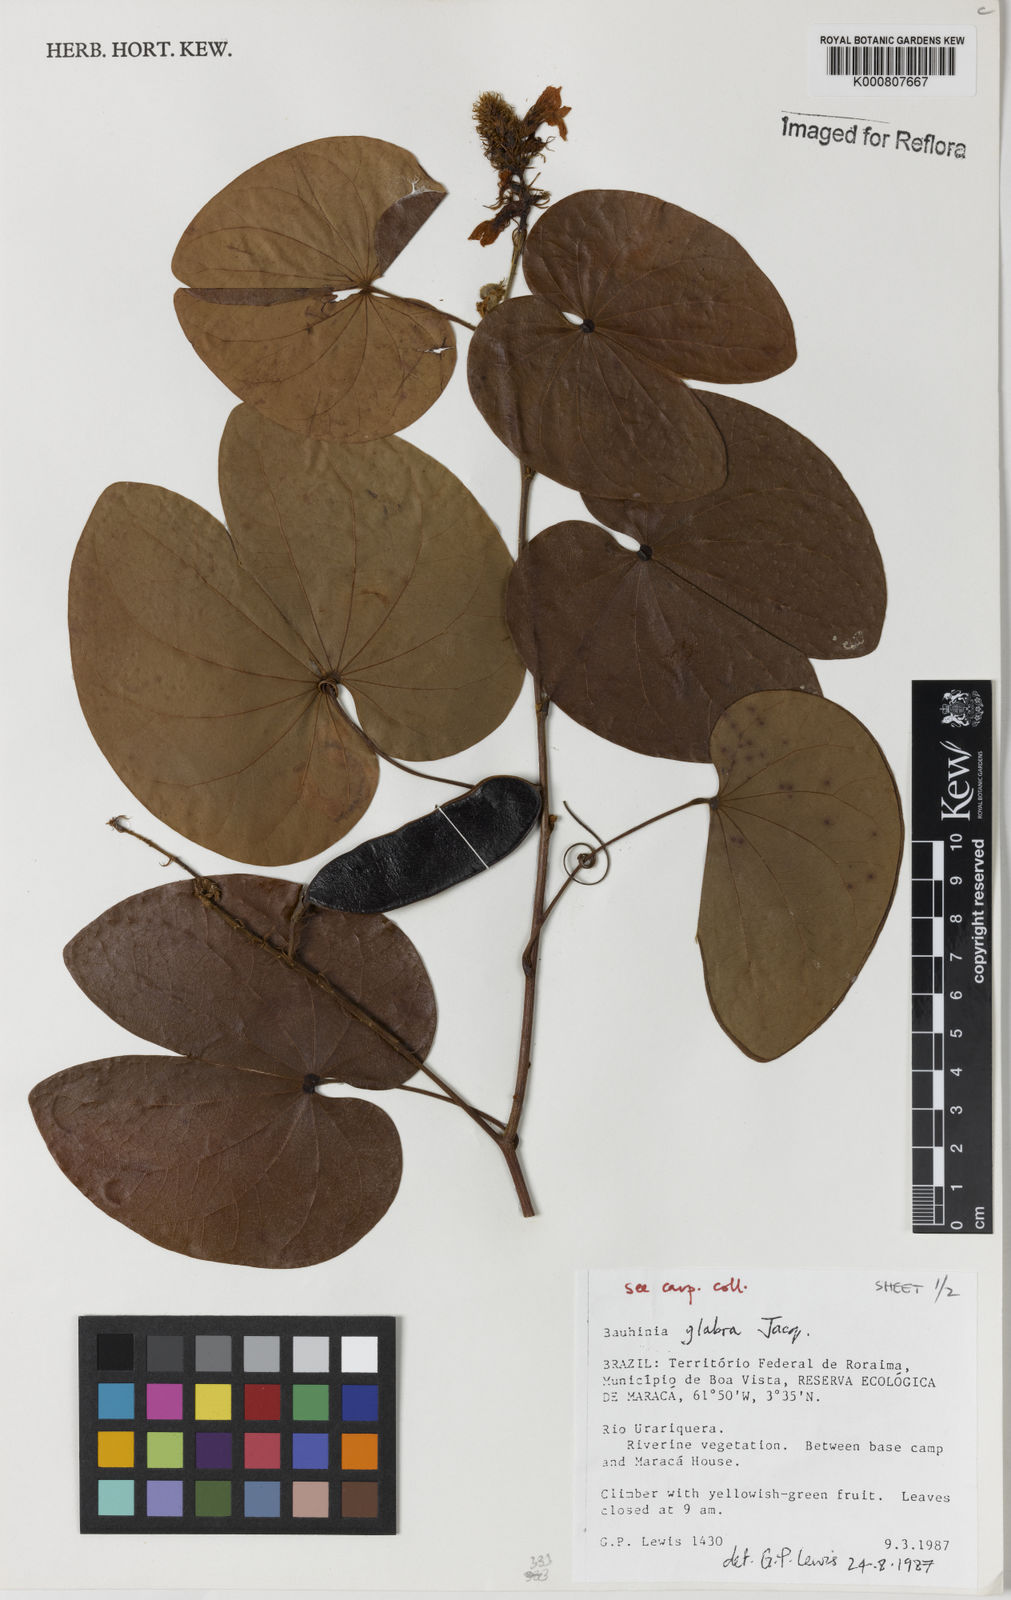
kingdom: Plantae
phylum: Tracheophyta
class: Magnoliopsida
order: Fabales
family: Fabaceae
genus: Schnella
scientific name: Schnella glabra
